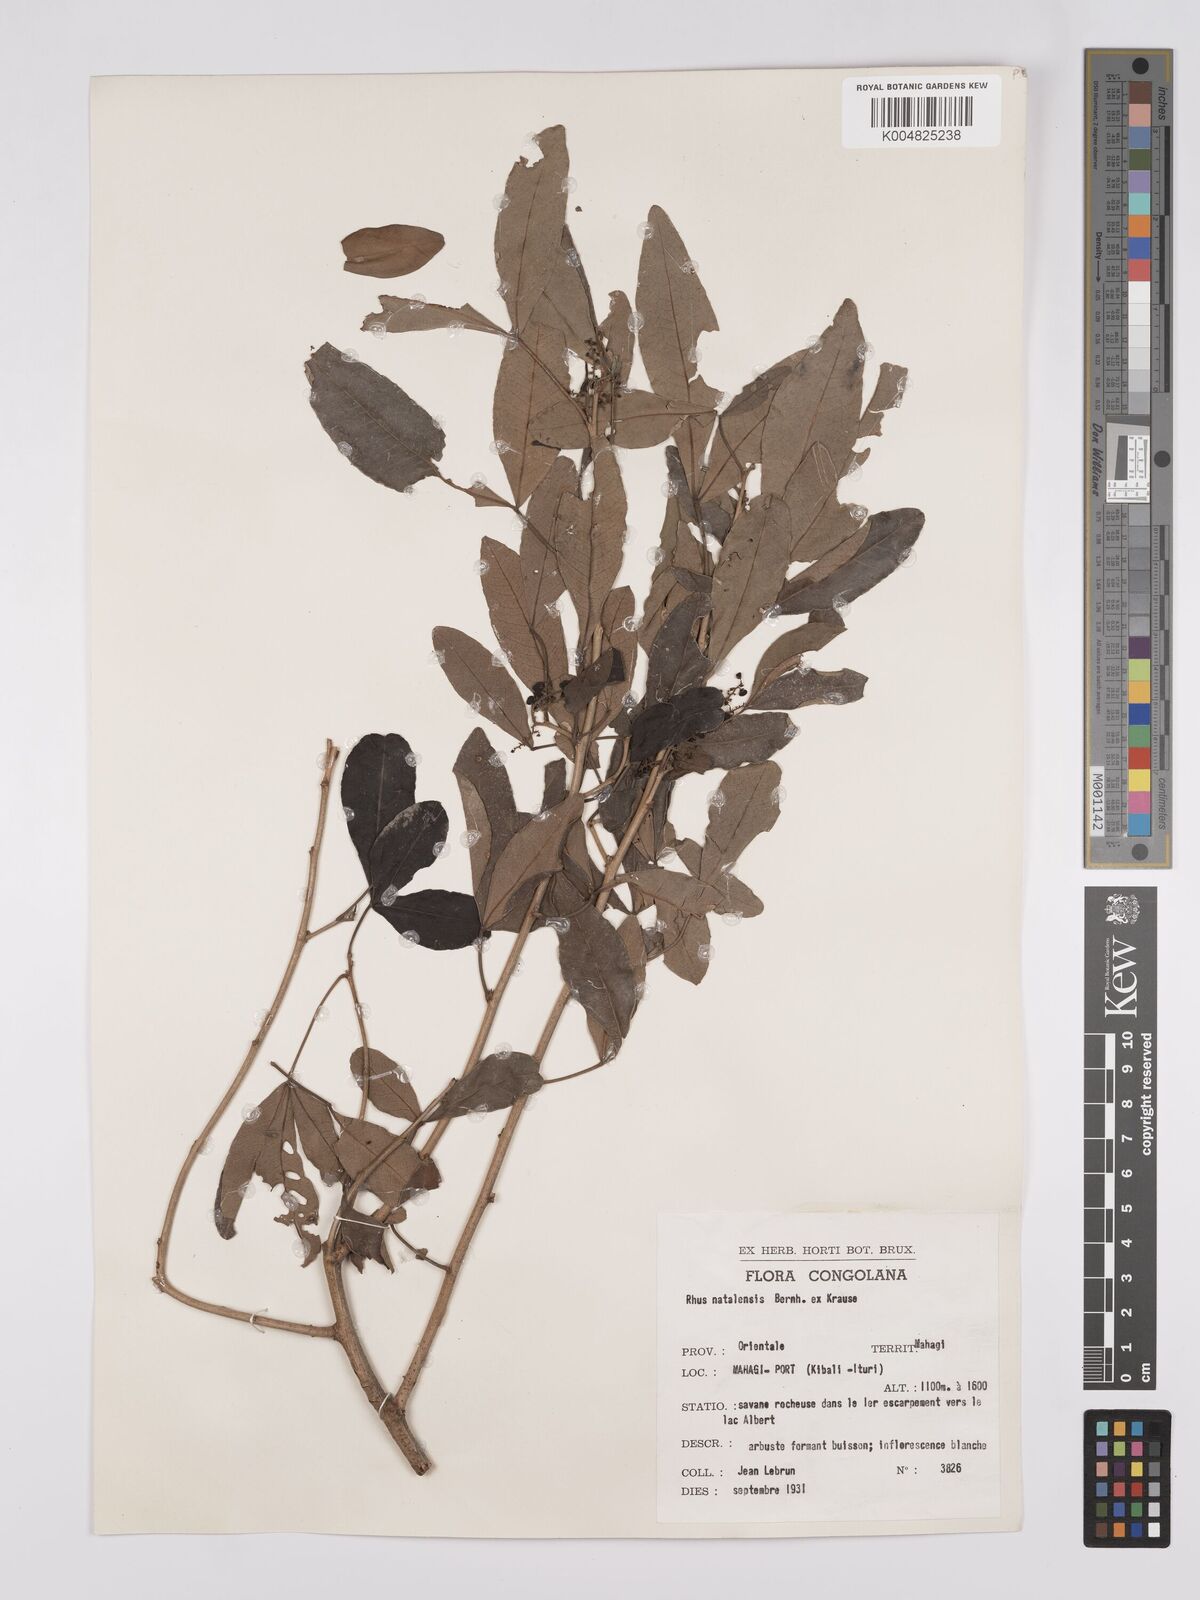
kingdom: Plantae
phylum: Tracheophyta
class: Magnoliopsida
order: Sapindales
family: Anacardiaceae
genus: Searsia
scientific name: Searsia natalensis
